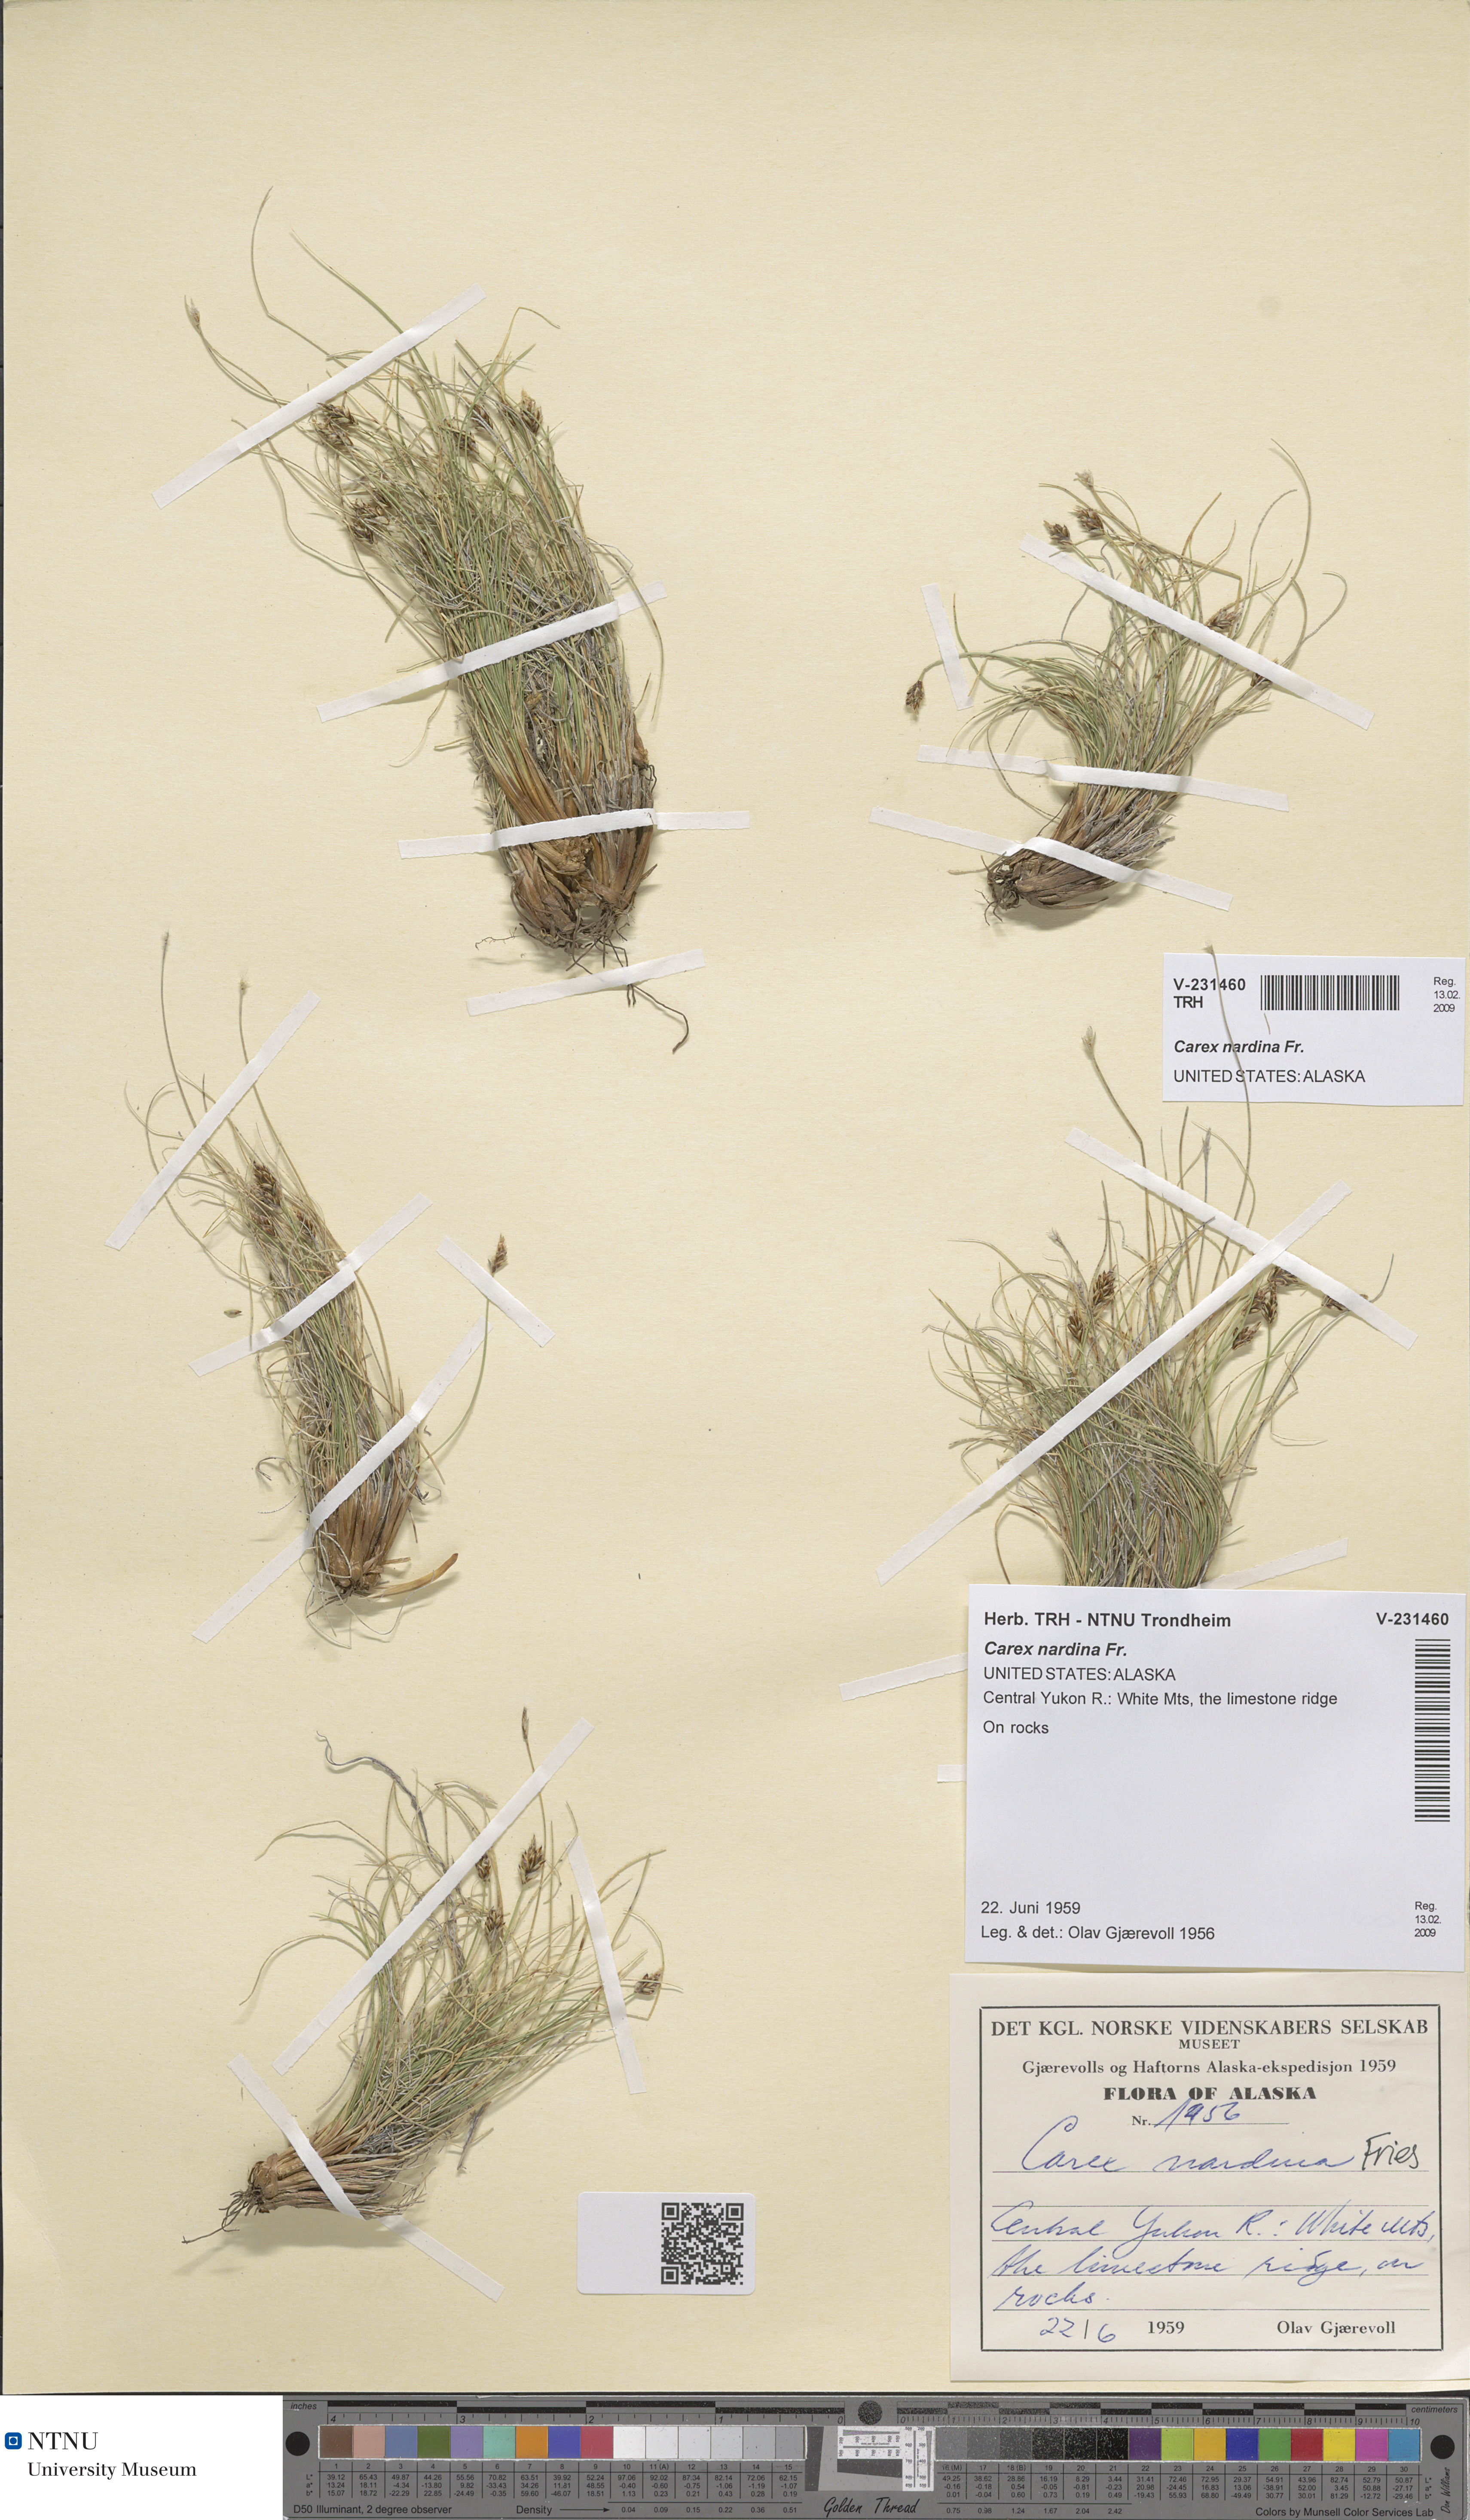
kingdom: Plantae
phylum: Tracheophyta
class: Liliopsida
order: Poales
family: Cyperaceae
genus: Carex
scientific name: Carex nardina
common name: Nard sedge
